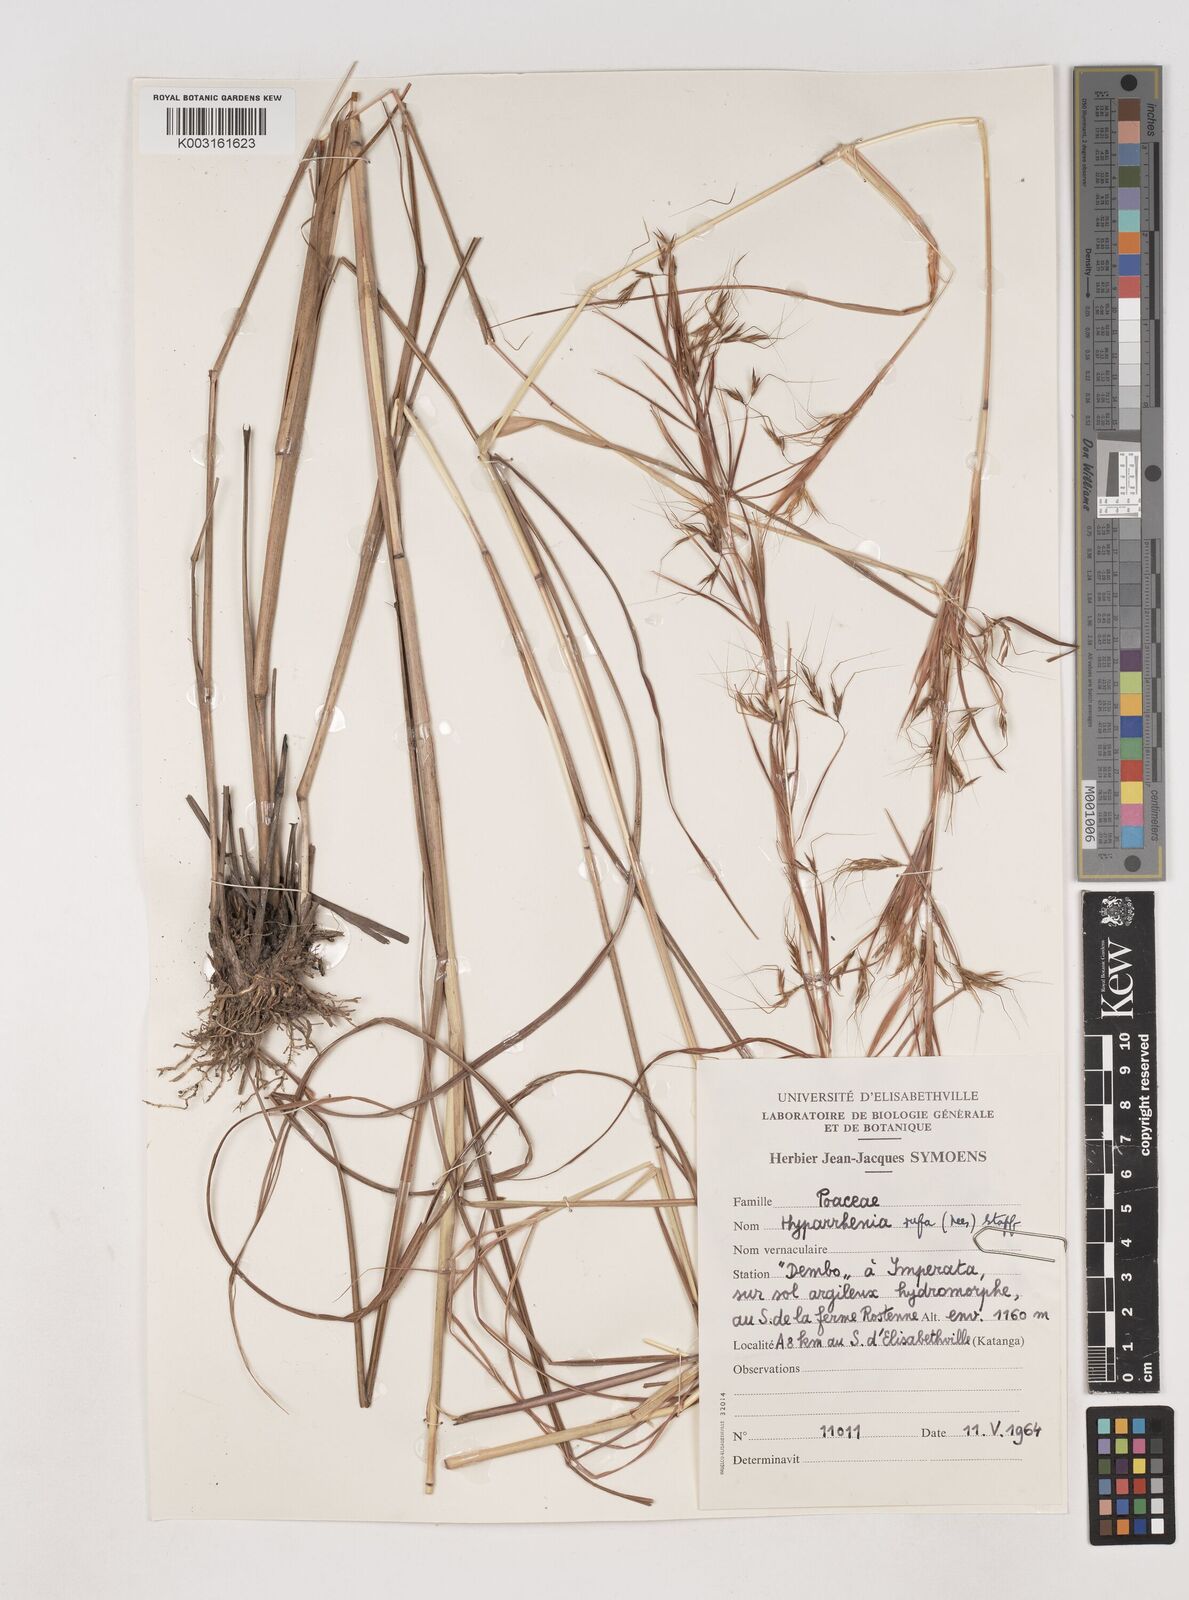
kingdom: Plantae
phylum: Tracheophyta
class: Liliopsida
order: Poales
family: Poaceae
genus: Hyparrhenia
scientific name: Hyparrhenia rufa
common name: Jaraguagrass
